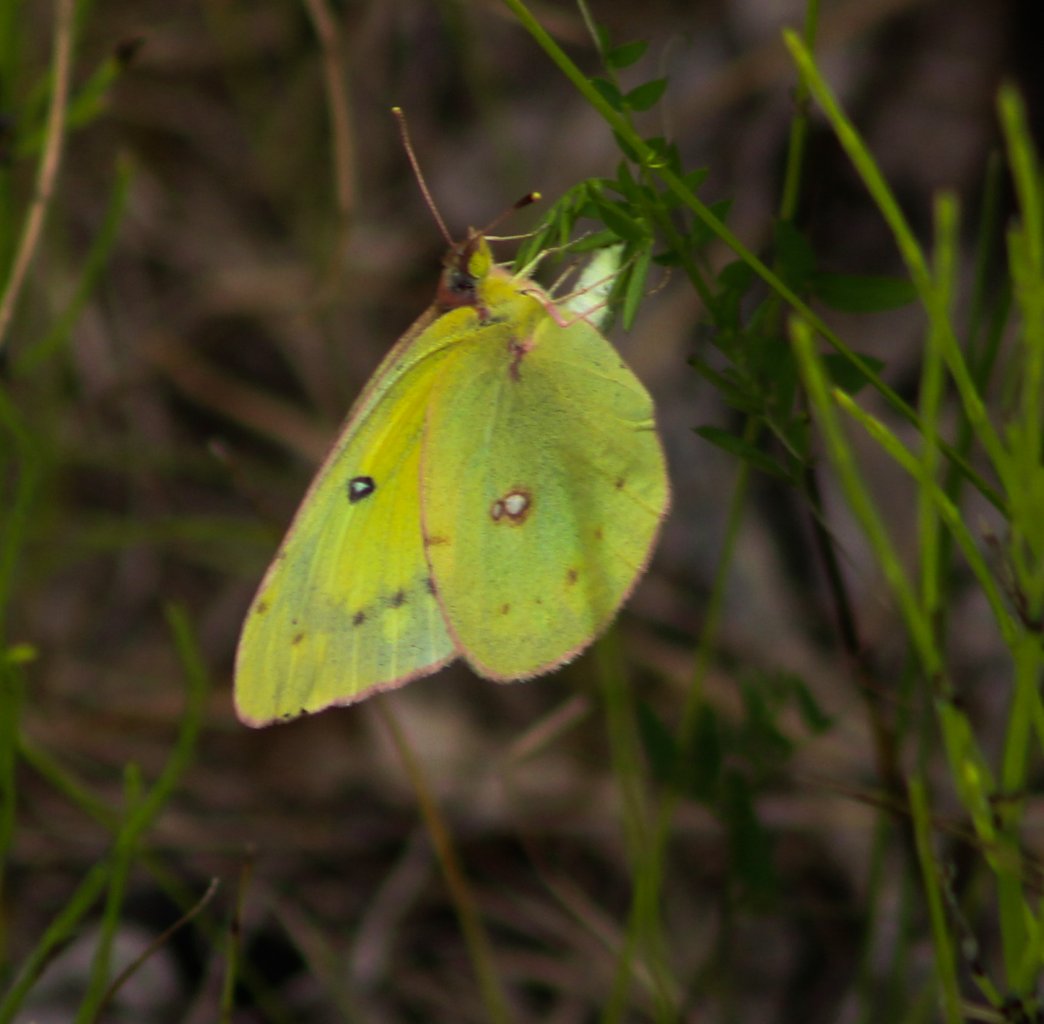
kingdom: Animalia
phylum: Arthropoda
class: Insecta
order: Lepidoptera
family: Pieridae
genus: Colias
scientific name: Colias philodice
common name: Clouded Sulphur
